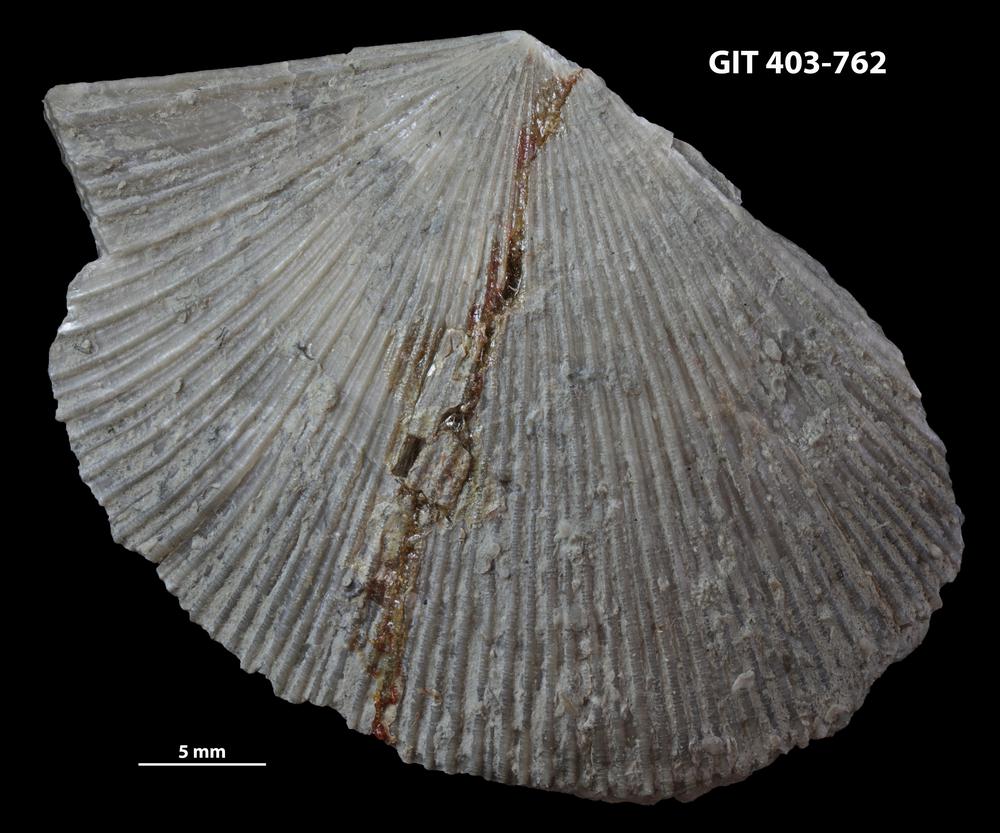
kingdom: Animalia
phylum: Brachiopoda
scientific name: Brachiopoda
